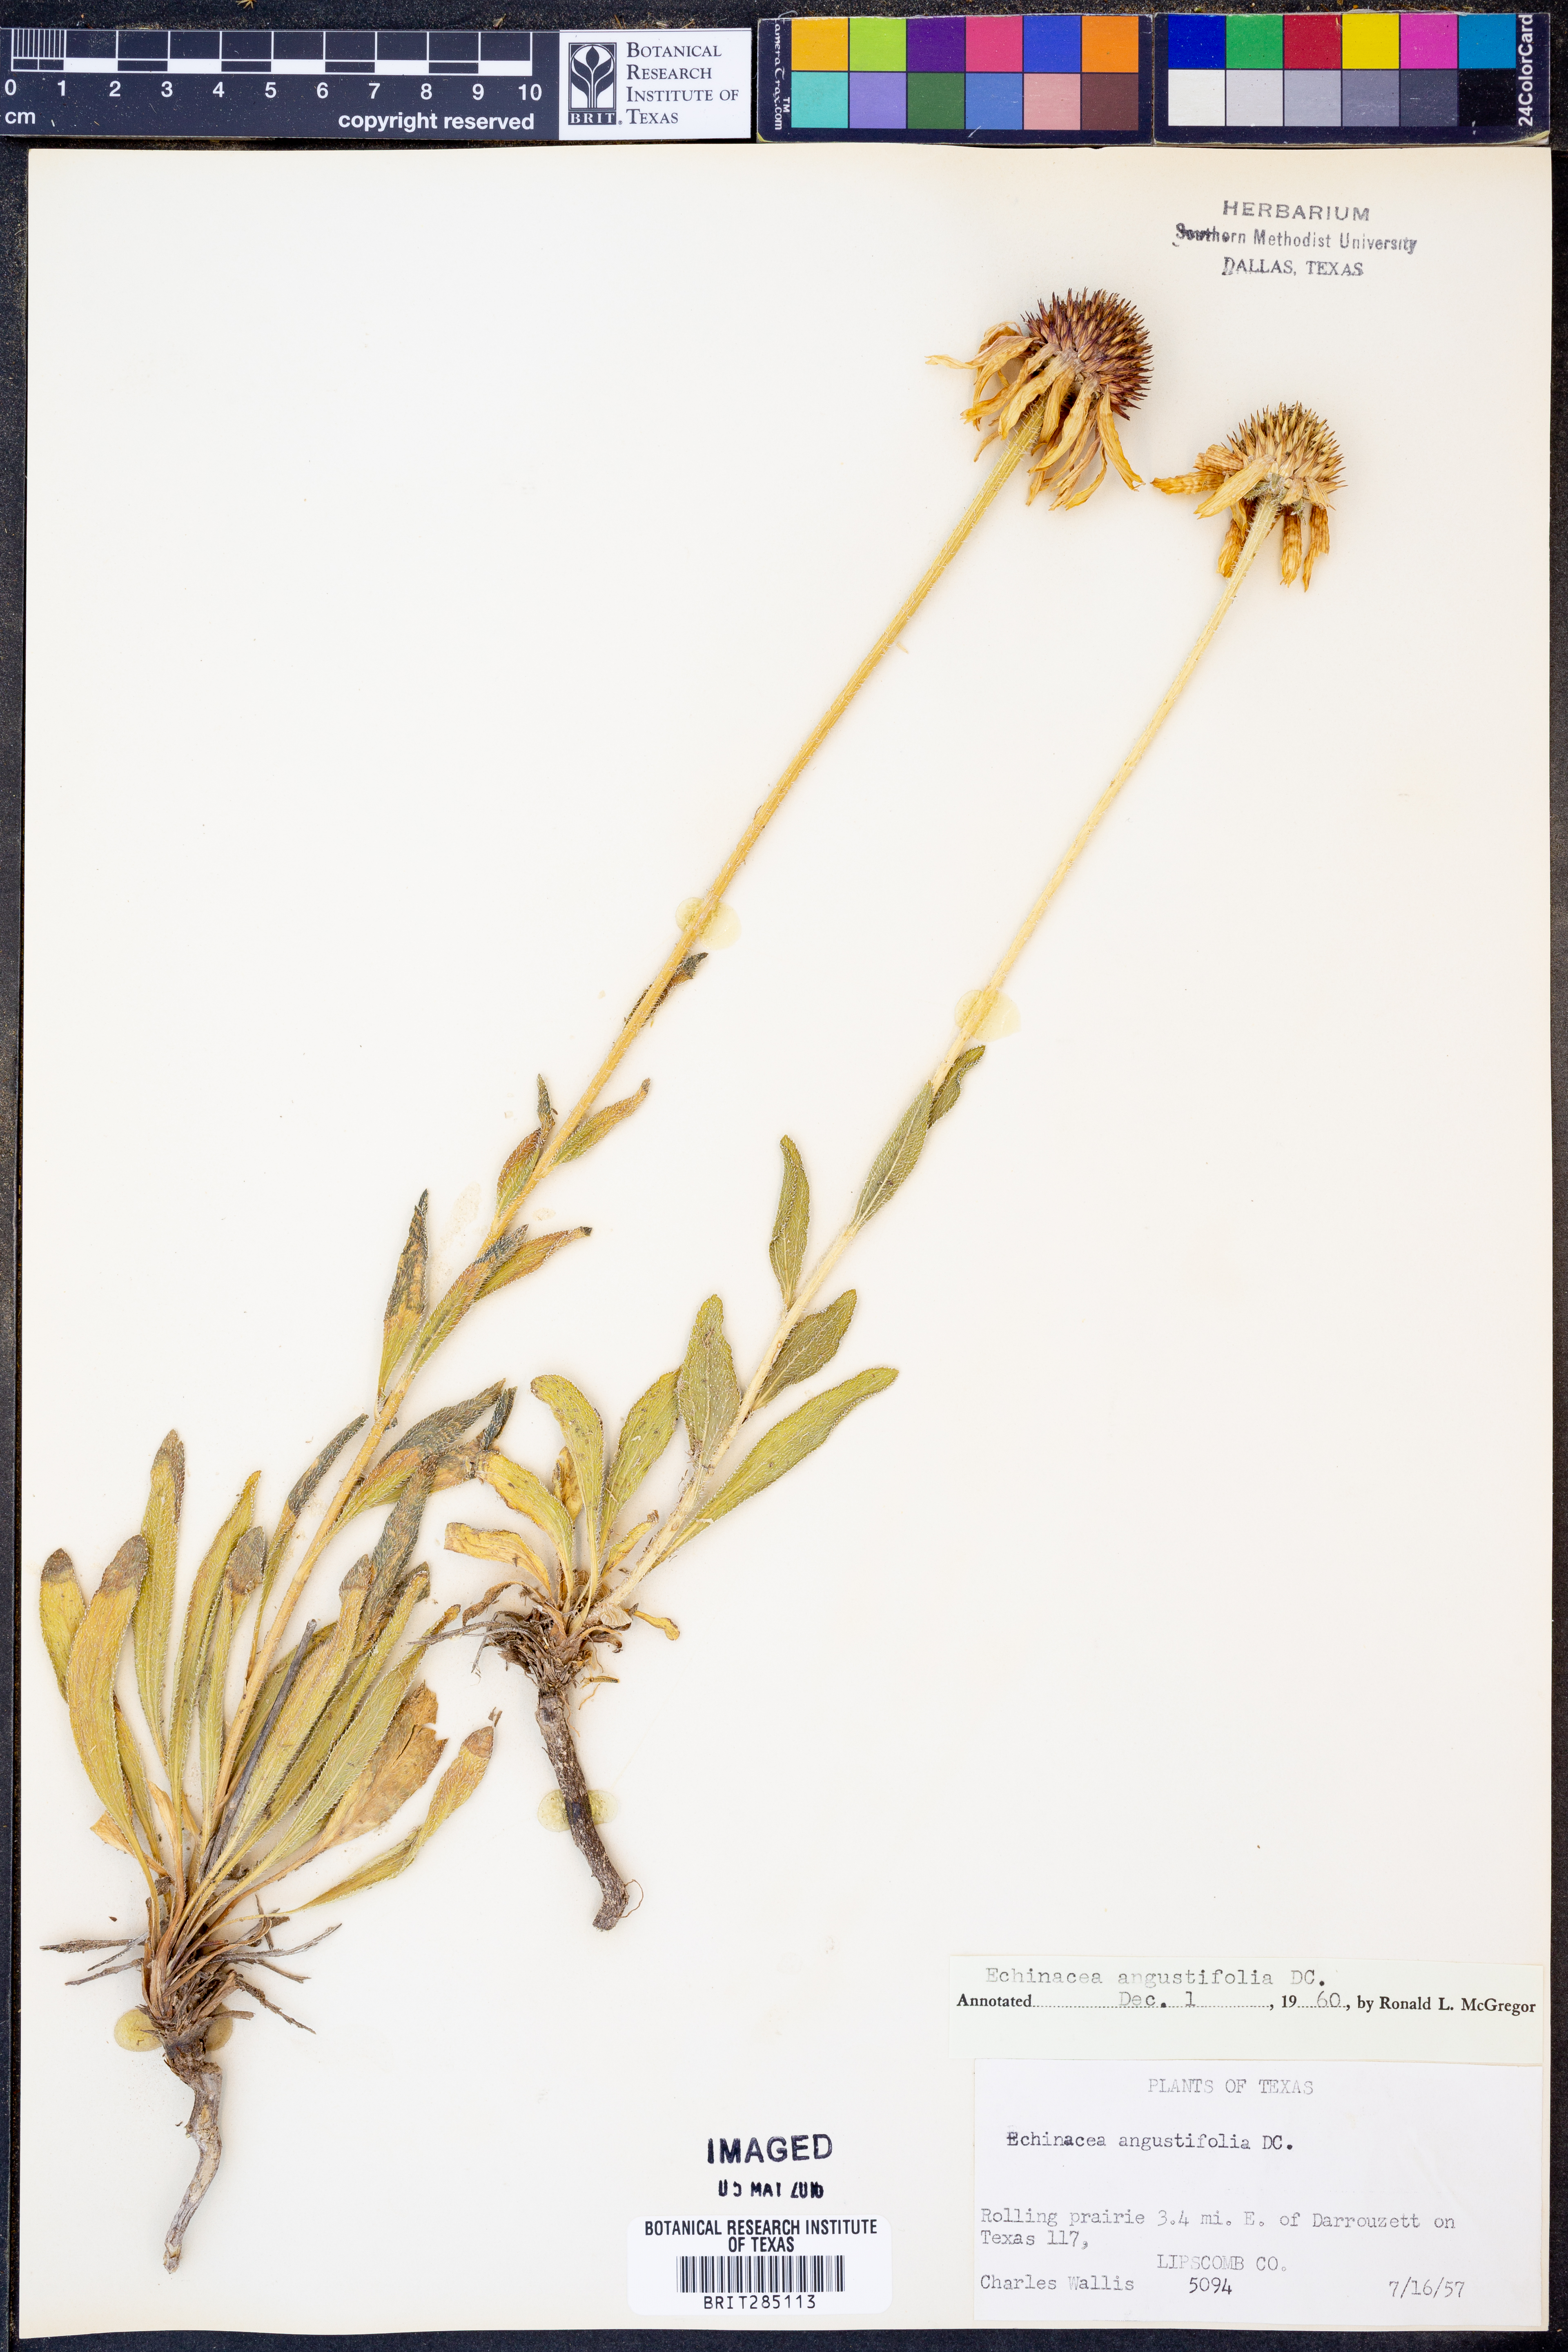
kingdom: Plantae
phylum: Tracheophyta
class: Magnoliopsida
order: Asterales
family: Asteraceae
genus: Echinacea
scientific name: Echinacea angustifolia
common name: Black-sampson echinacea
